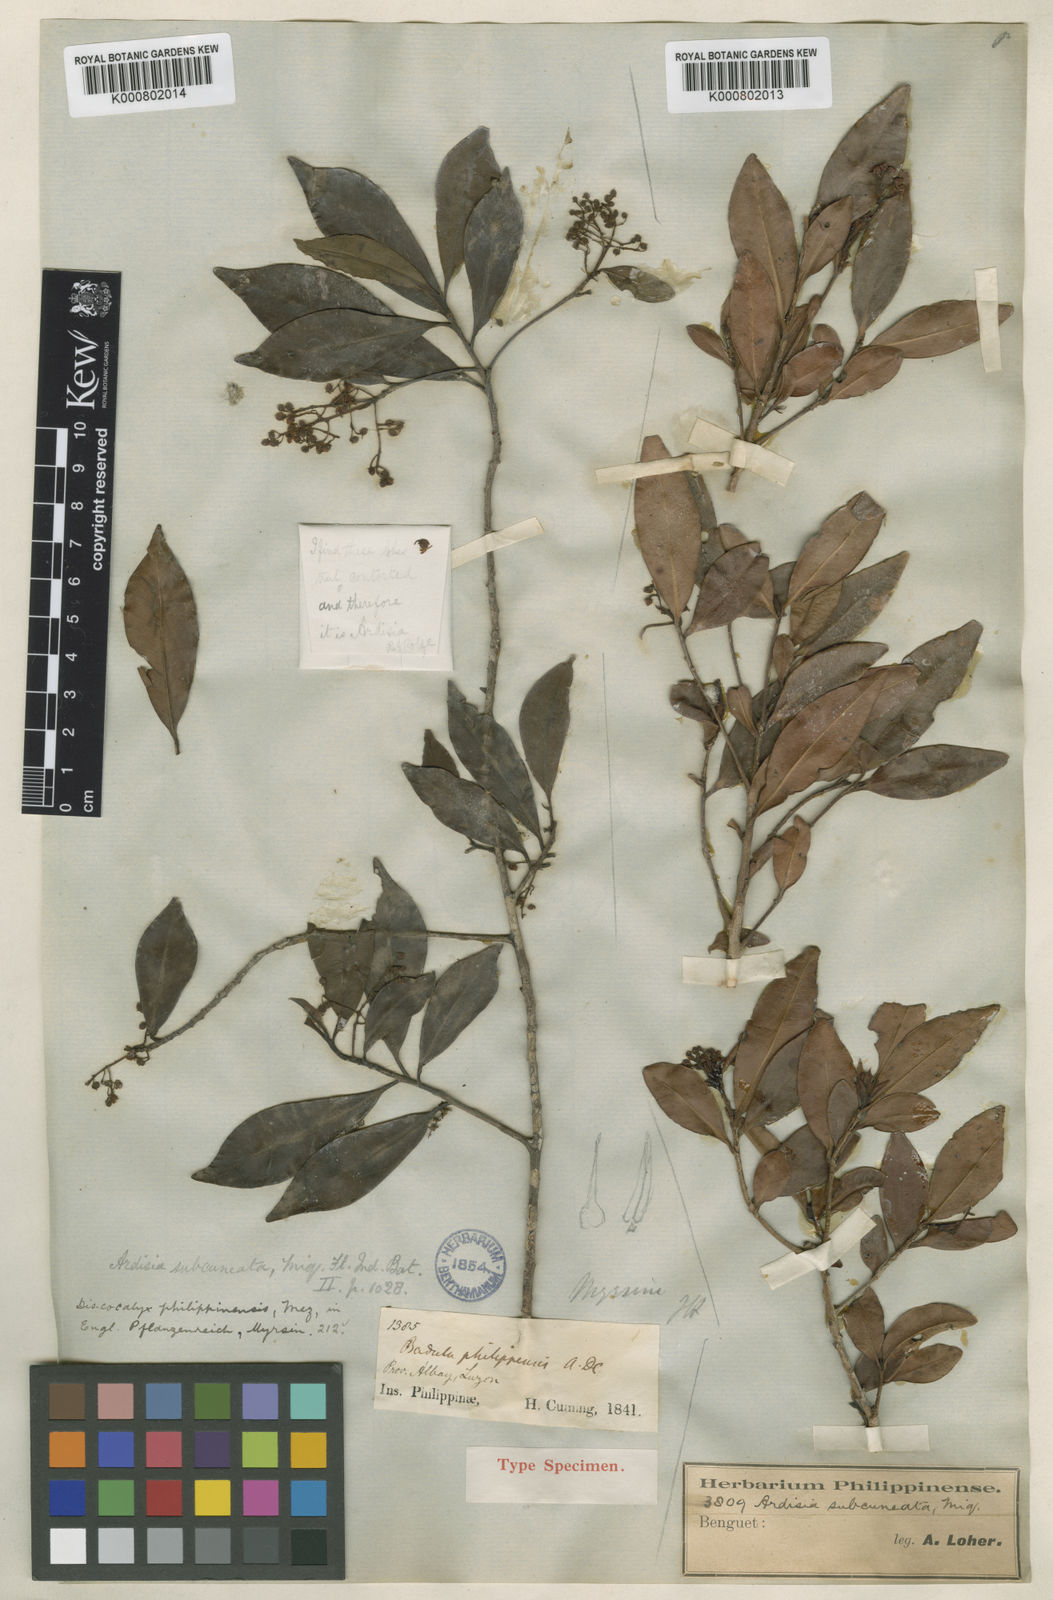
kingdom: Plantae
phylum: Tracheophyta
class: Magnoliopsida
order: Ericales
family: Primulaceae
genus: Discocalyx
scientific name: Discocalyx philippinensis
